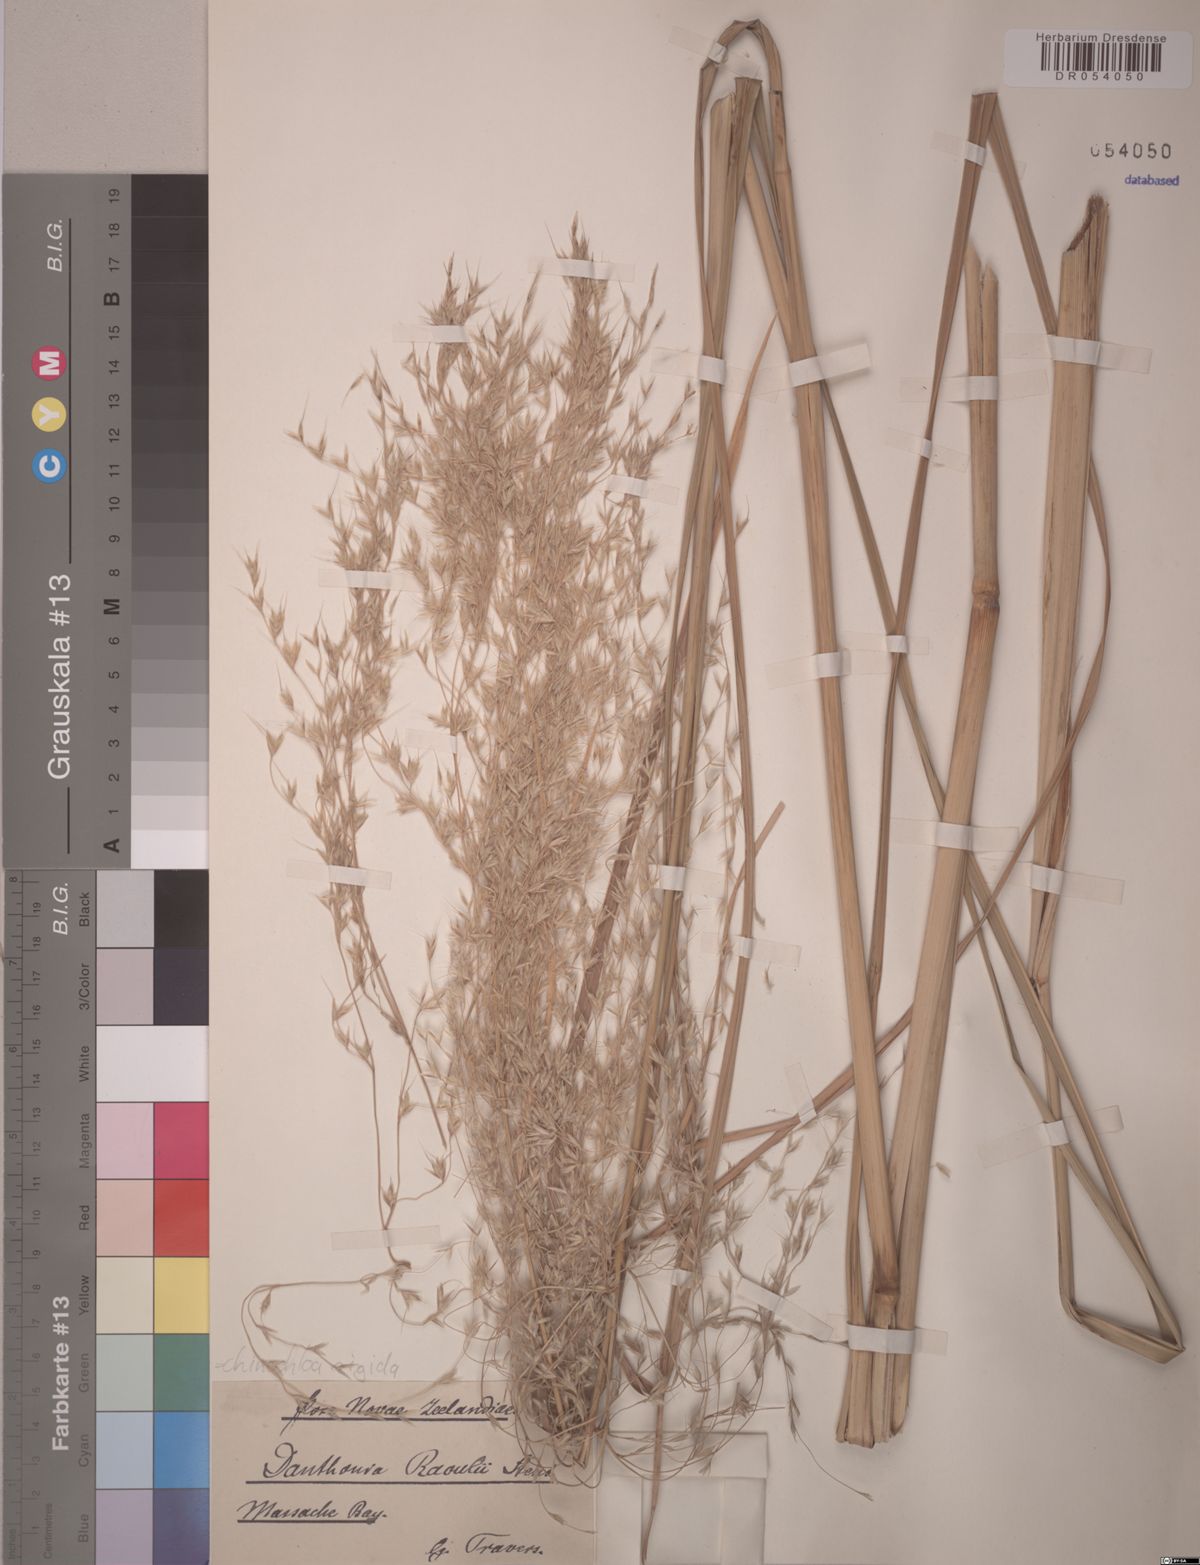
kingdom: Plantae
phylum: Tracheophyta
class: Liliopsida
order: Poales
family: Poaceae
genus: Chionochloa
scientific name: Chionochloa rigida
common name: Narrow leaved snow tussock
